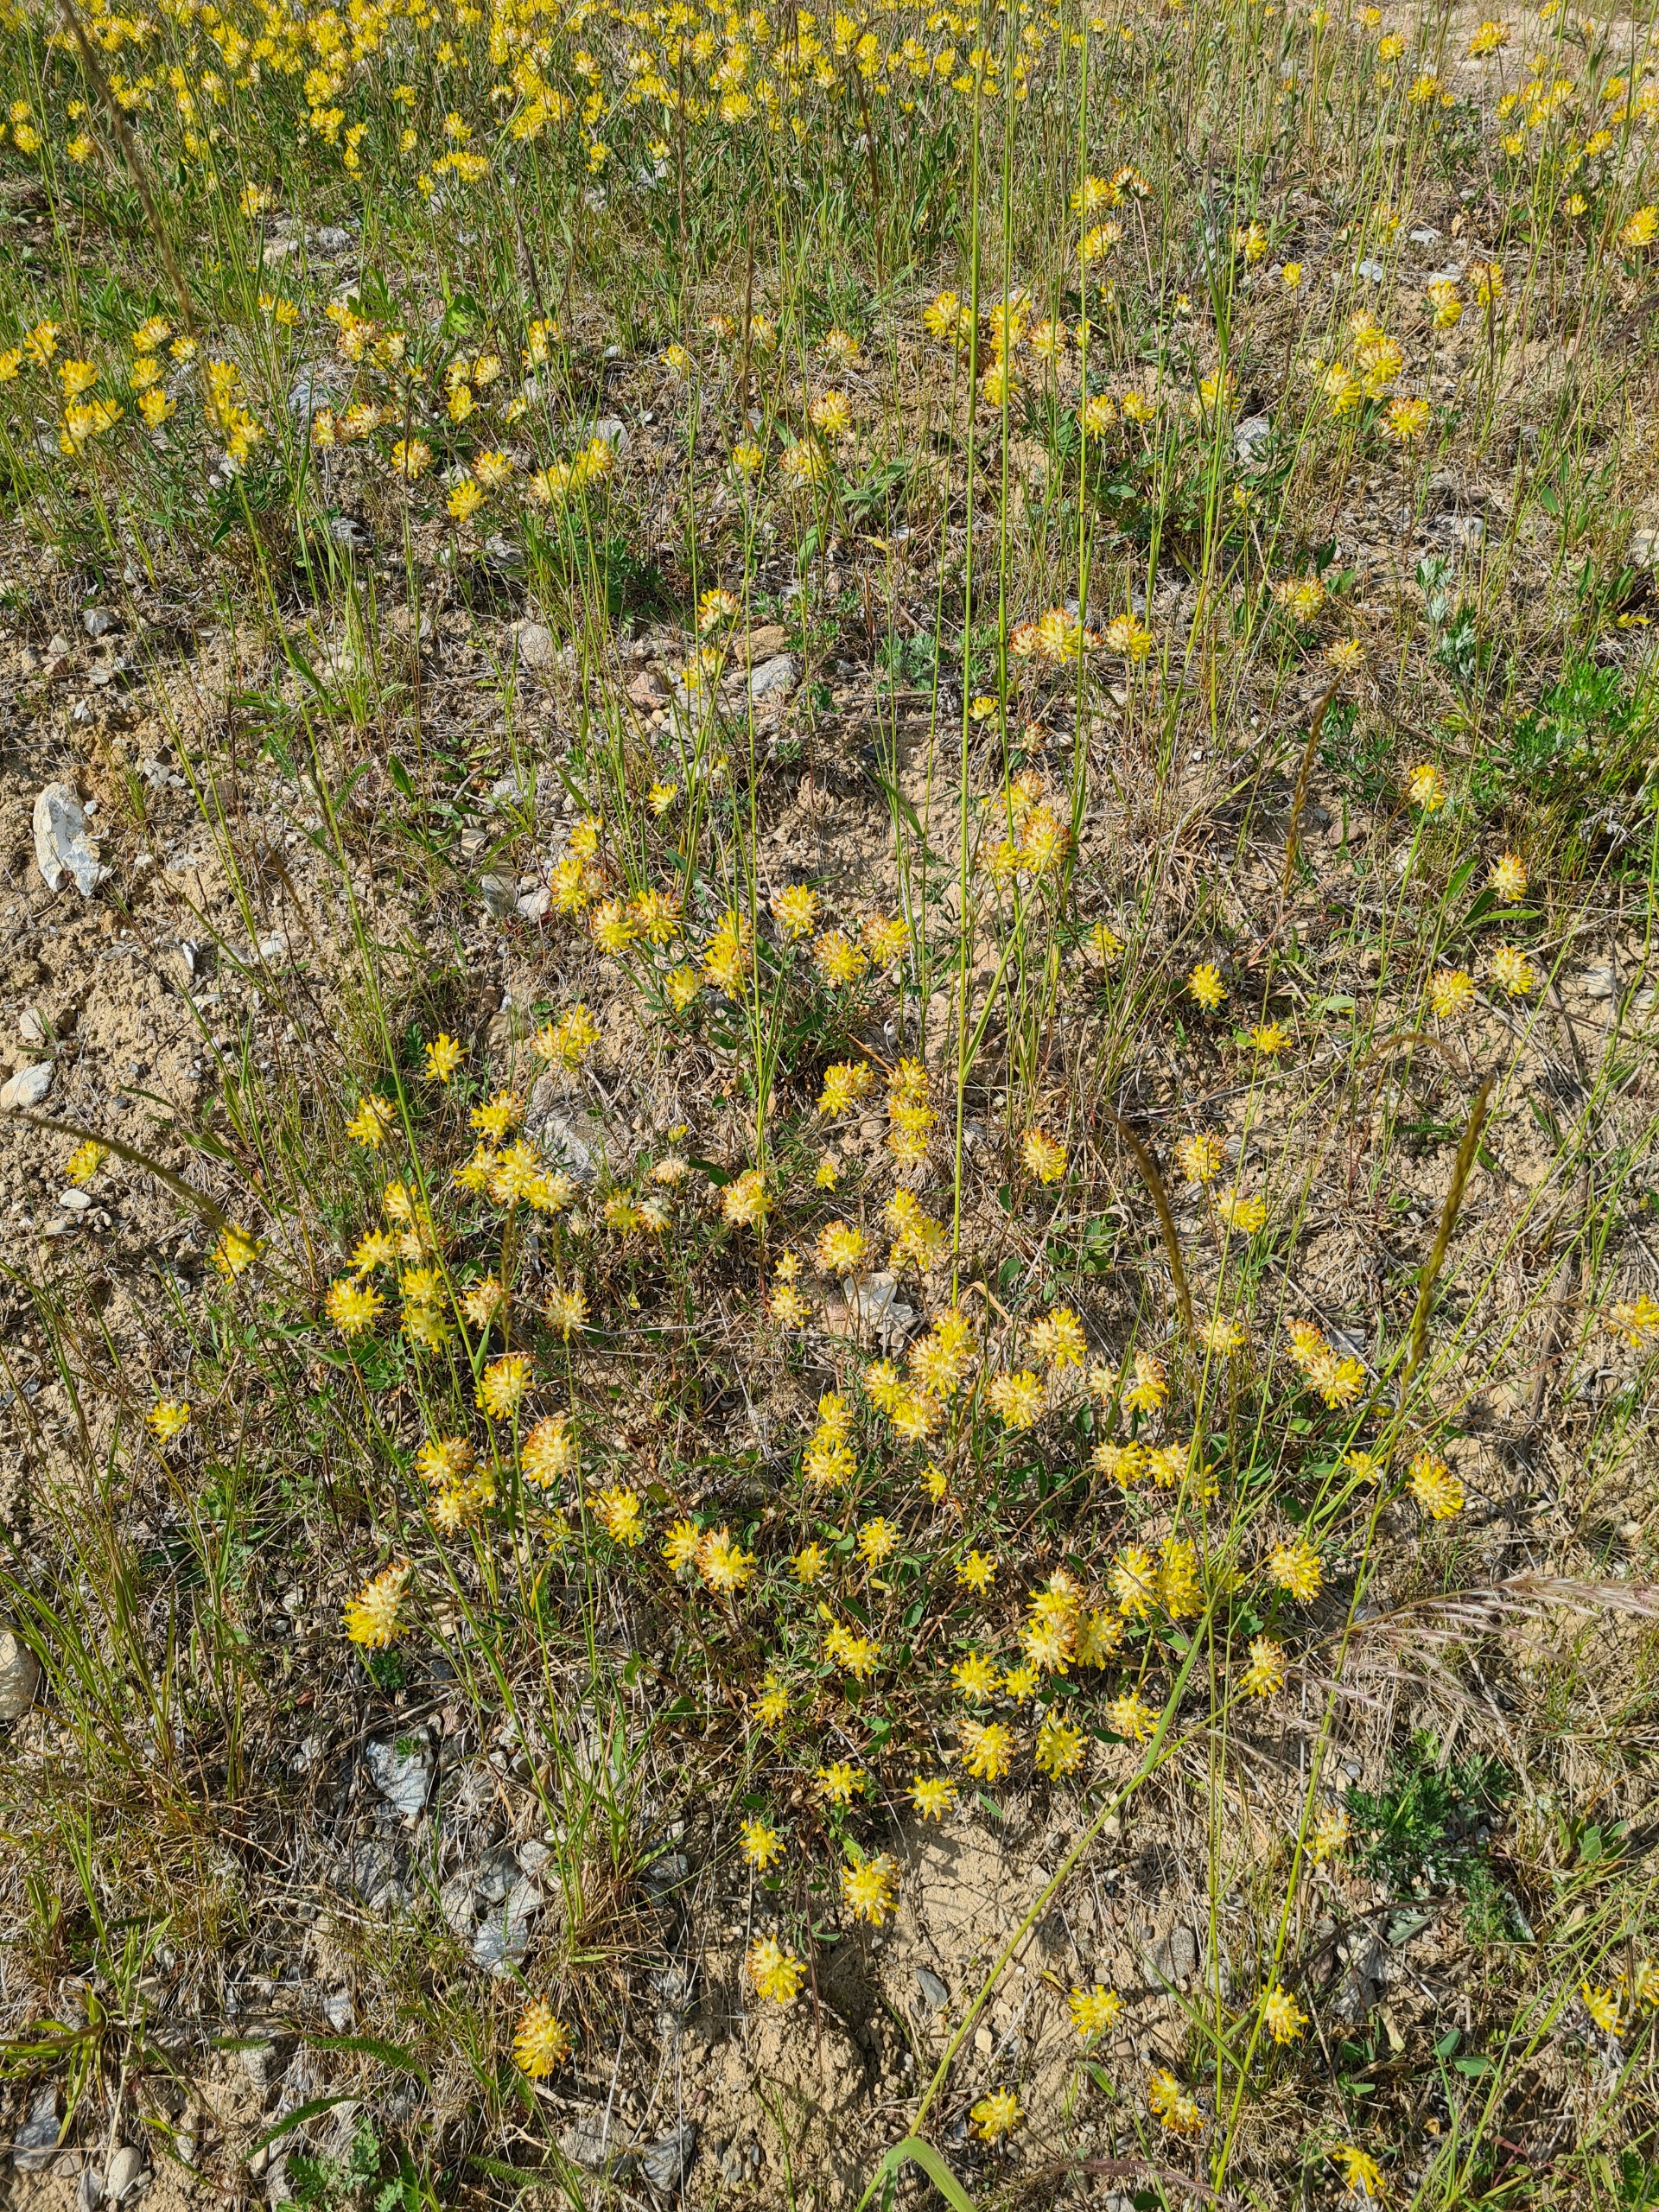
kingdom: Plantae
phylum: Tracheophyta
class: Magnoliopsida
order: Fabales
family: Fabaceae
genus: Anthyllis
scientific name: Anthyllis vulneraria
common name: Rundbælg
